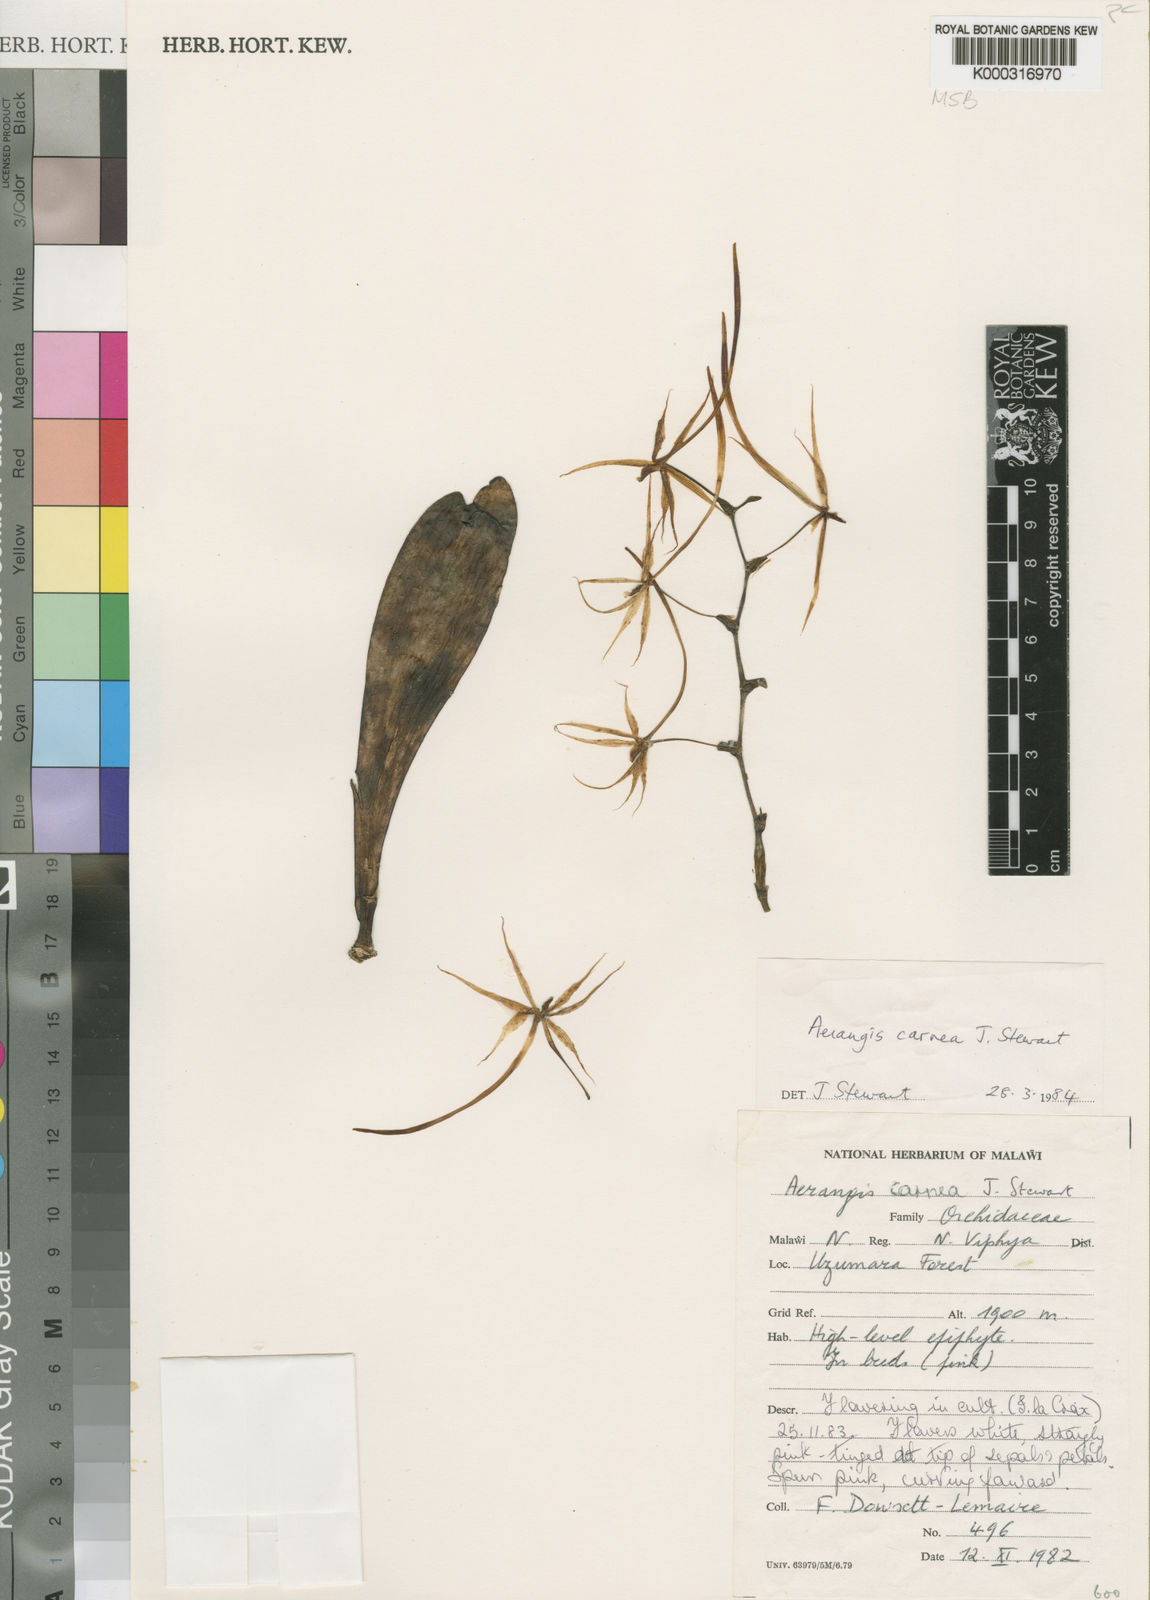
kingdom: Plantae
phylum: Tracheophyta
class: Liliopsida
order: Asparagales
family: Orchidaceae
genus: Aerangis
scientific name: Aerangis carnea
